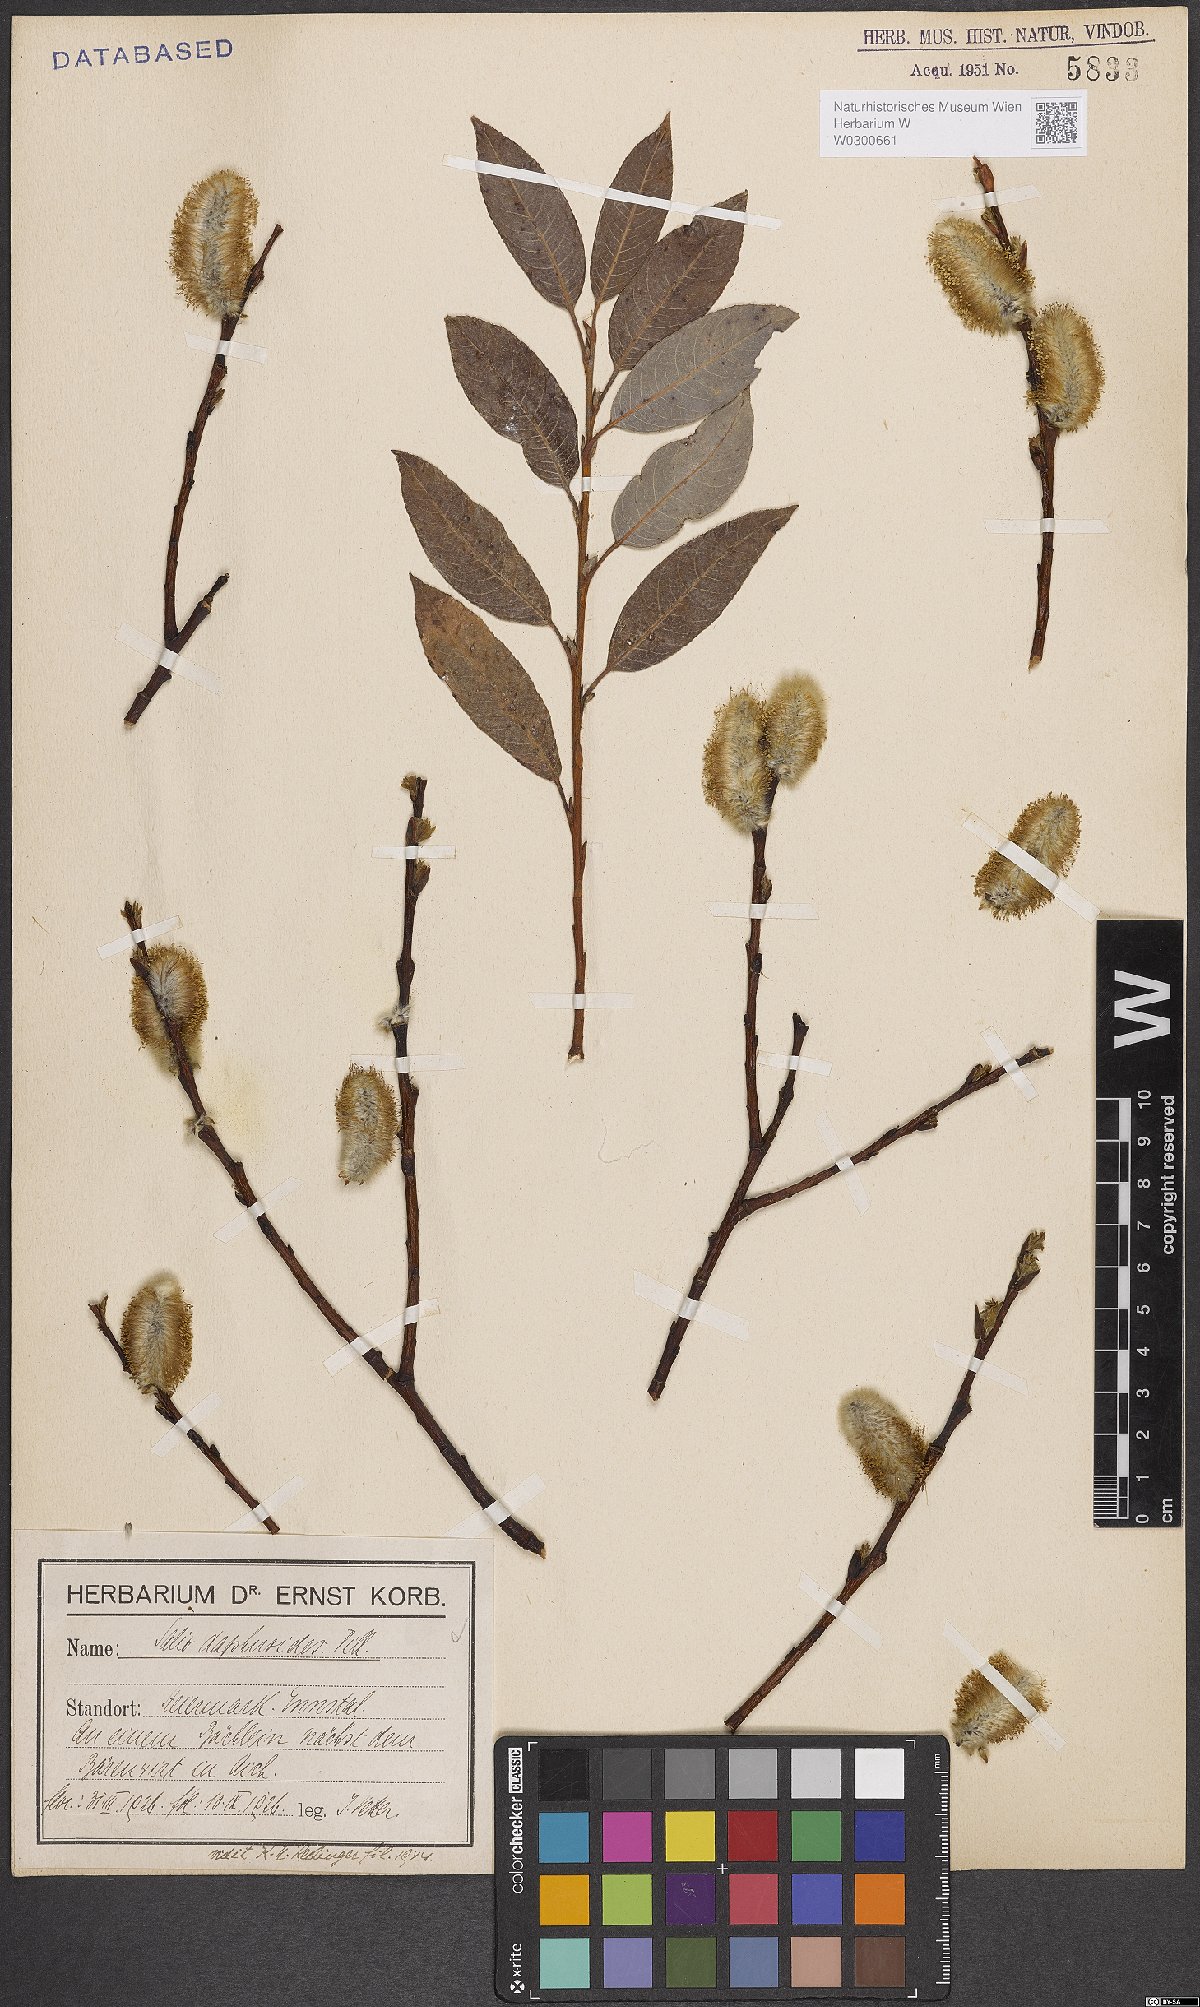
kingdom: Plantae
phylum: Tracheophyta
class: Magnoliopsida
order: Malpighiales
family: Salicaceae
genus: Salix
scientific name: Salix daphnoides
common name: European violet-willow
